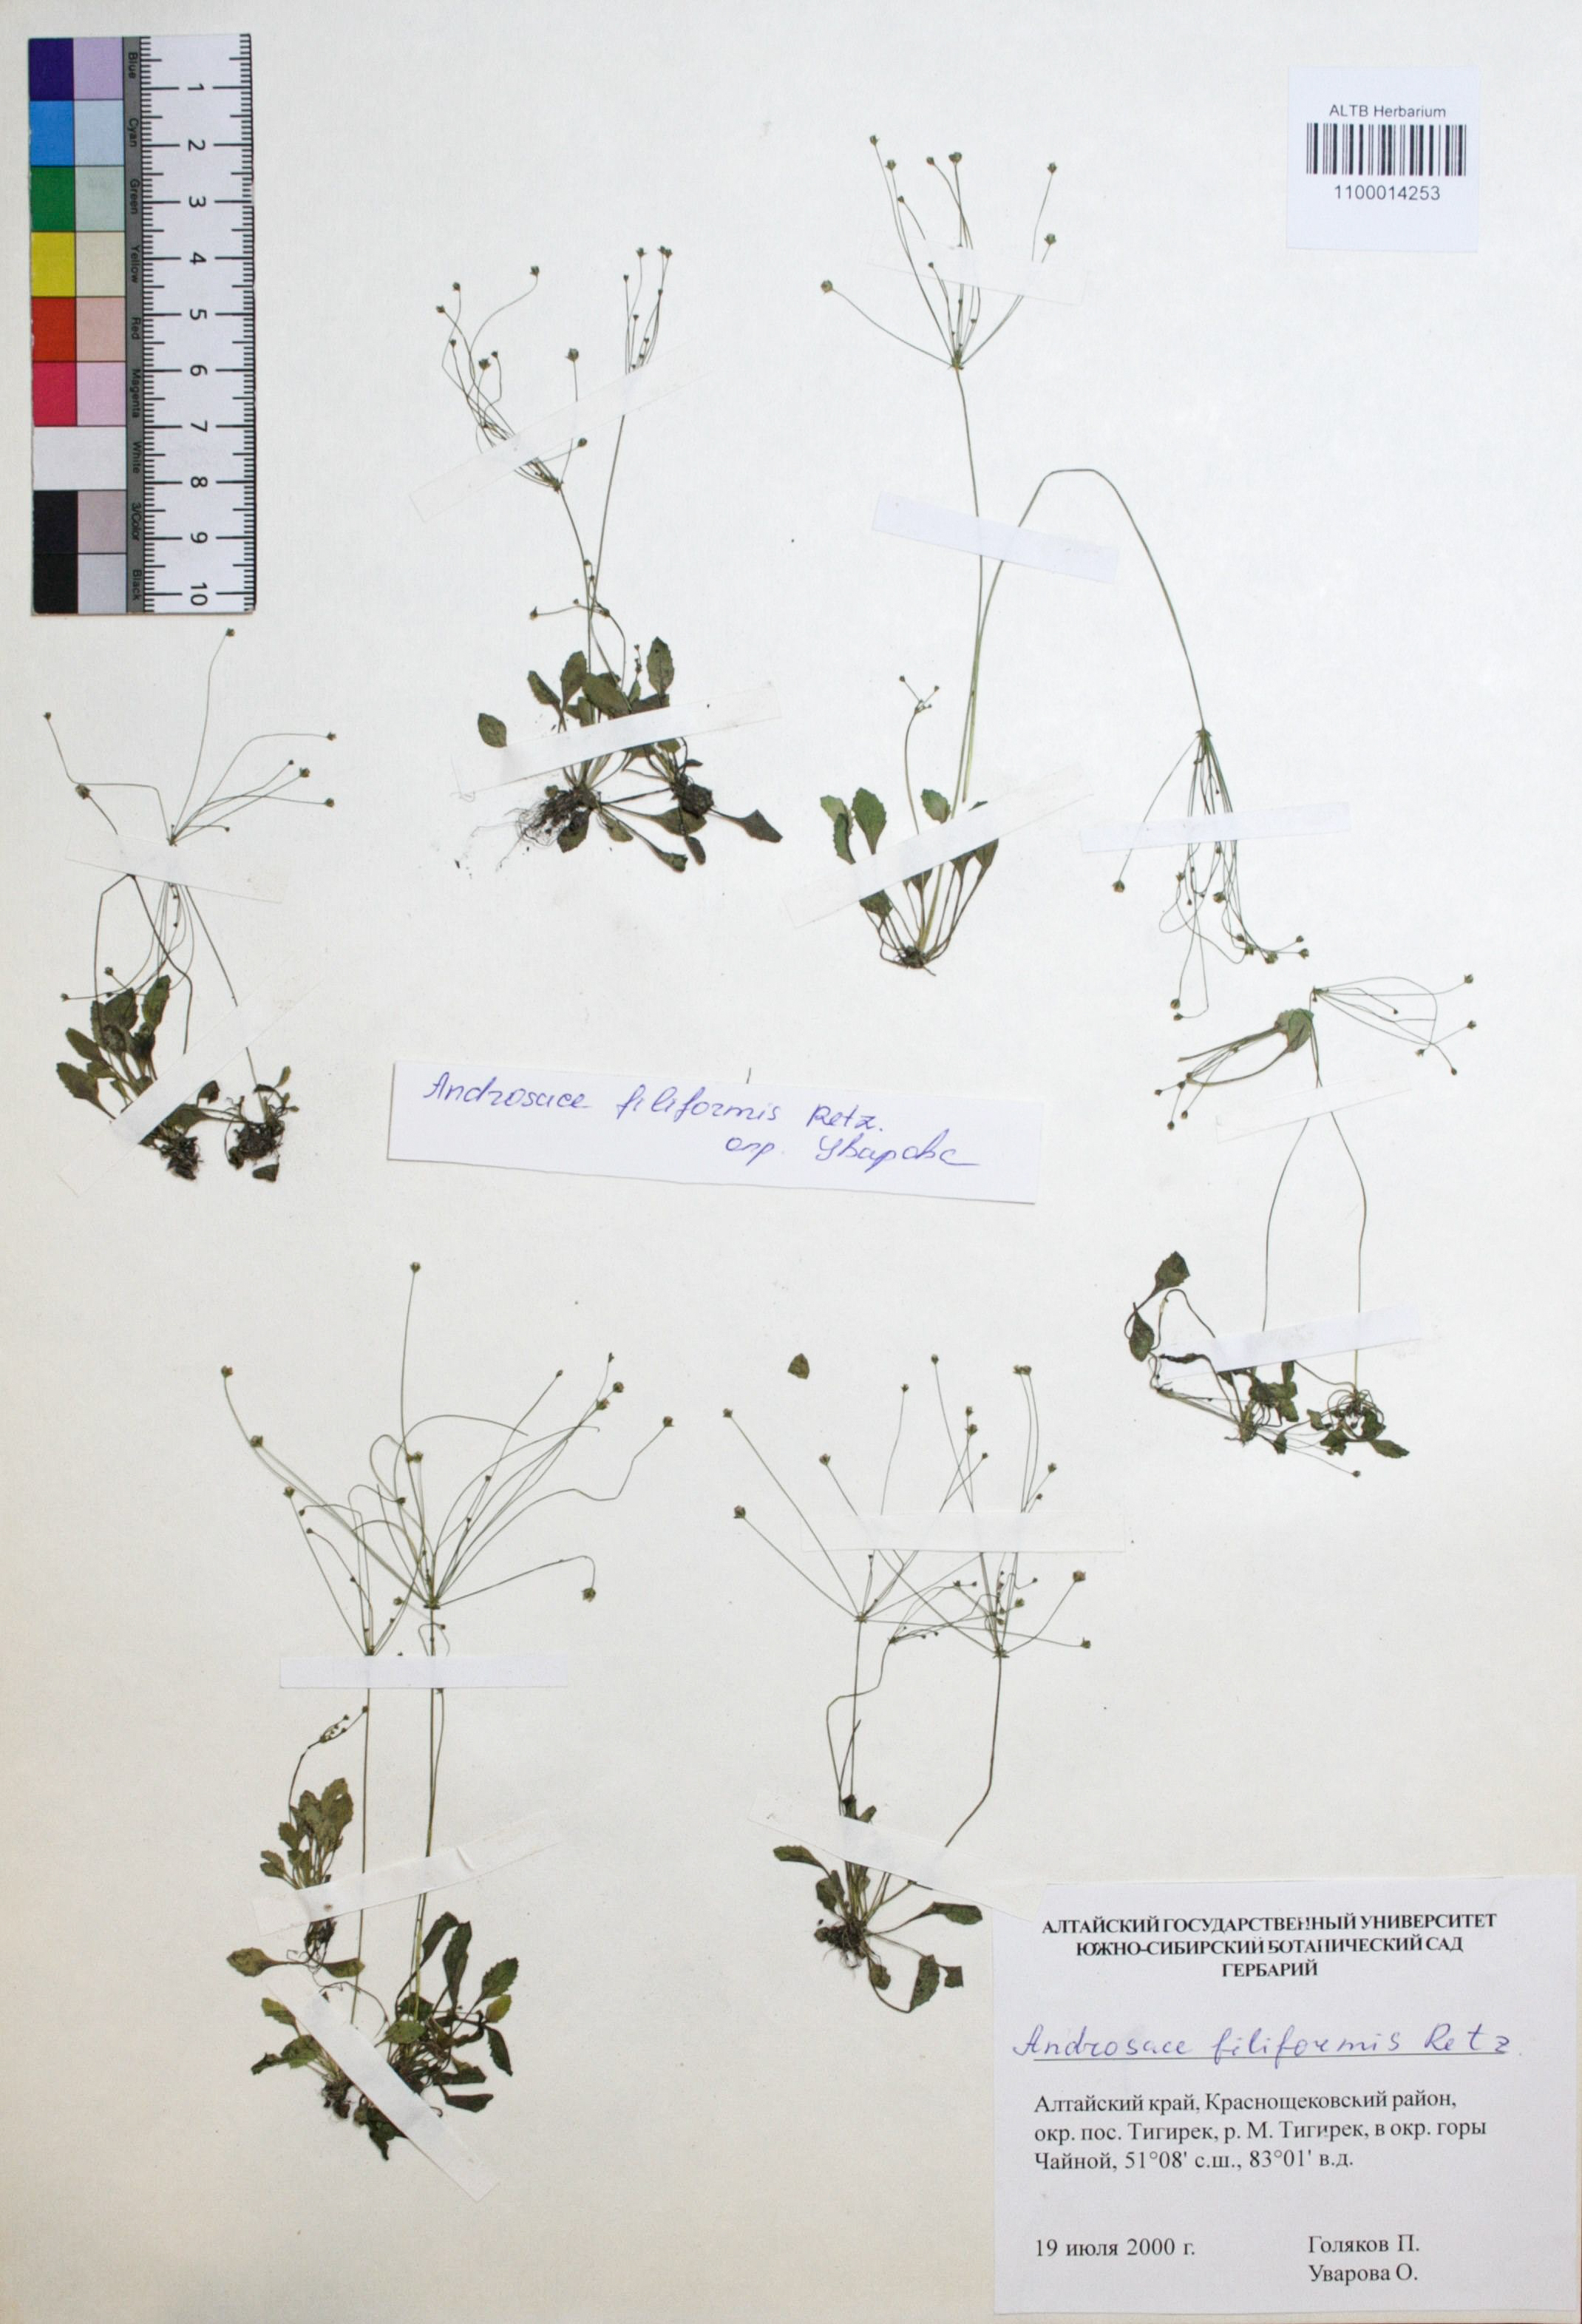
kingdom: Plantae
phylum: Tracheophyta
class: Magnoliopsida
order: Ericales
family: Primulaceae
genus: Androsace
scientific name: Androsace filiformis
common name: Filiform rock jasmine
